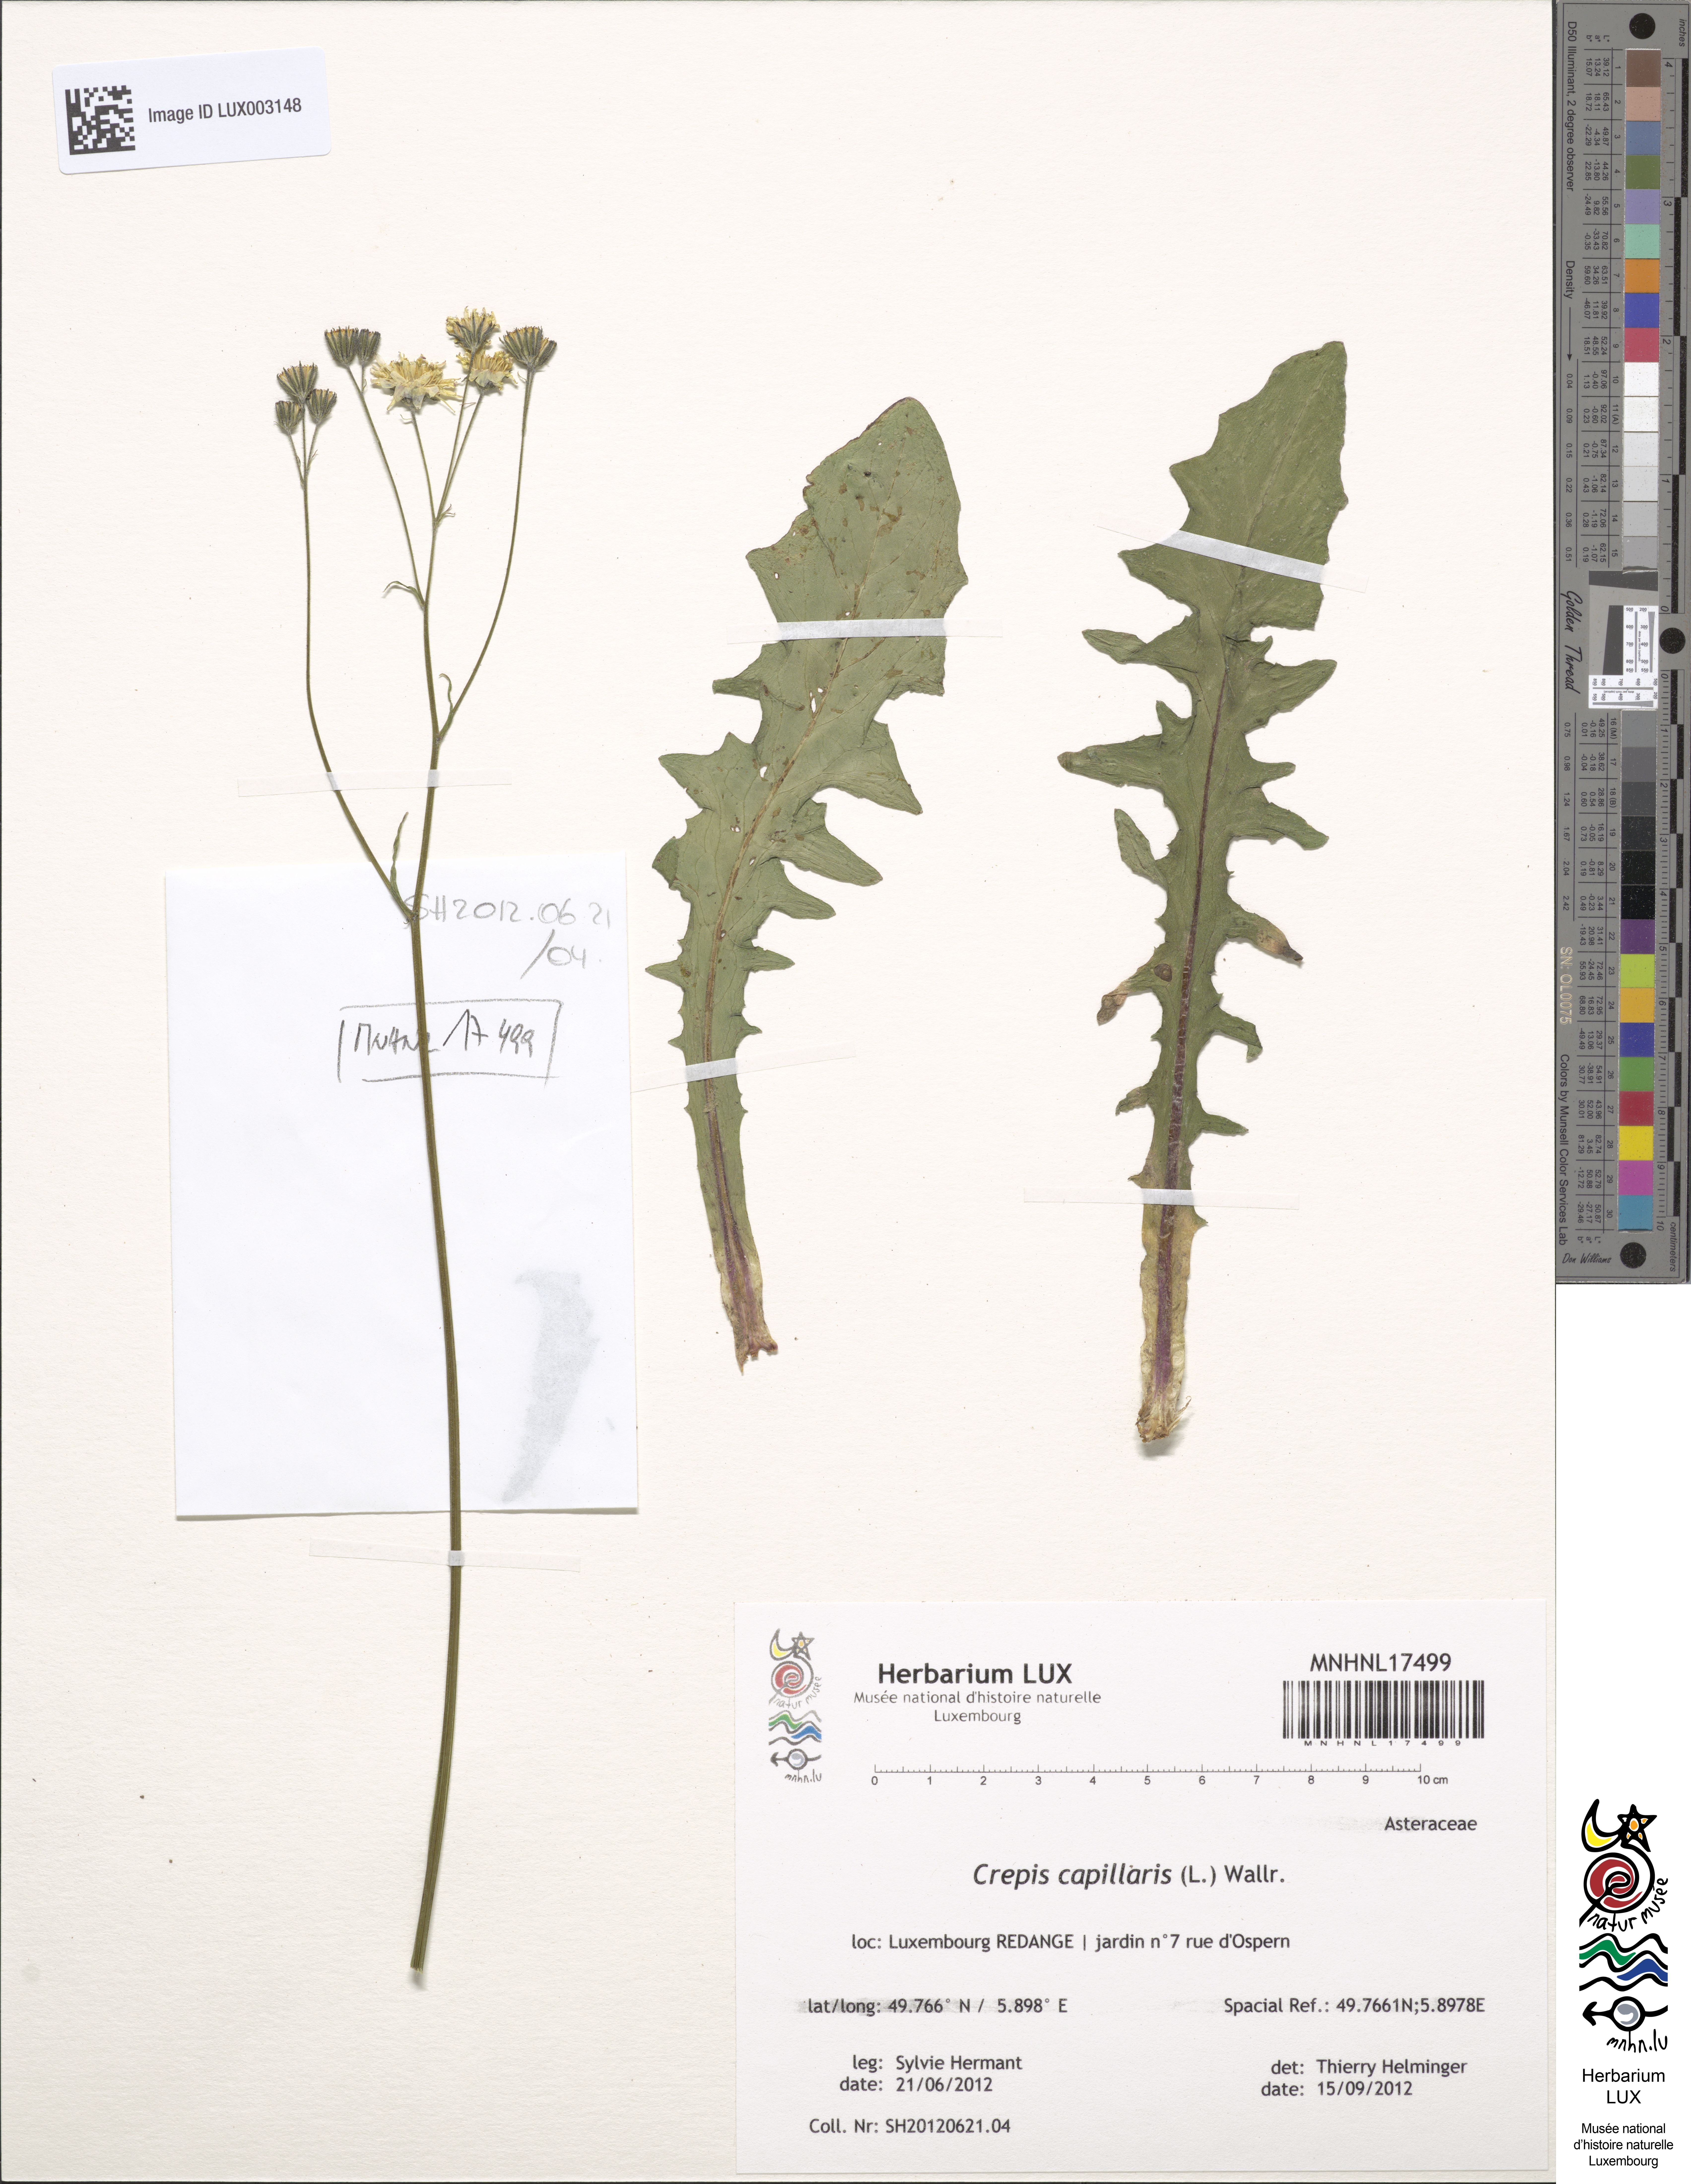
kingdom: Plantae
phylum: Tracheophyta
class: Magnoliopsida
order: Asterales
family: Asteraceae
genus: Crepis
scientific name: Crepis capillaris
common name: Smooth hawksbeard
